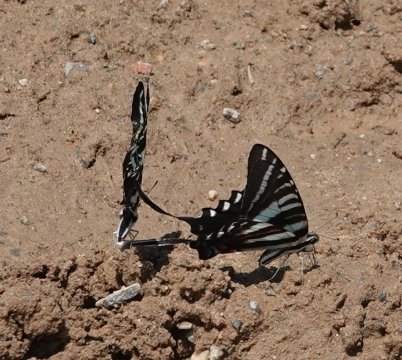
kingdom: Animalia
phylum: Arthropoda
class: Insecta
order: Lepidoptera
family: Papilionidae
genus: Protographium
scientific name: Protographium marcellus
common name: Zebra Swallowtail
